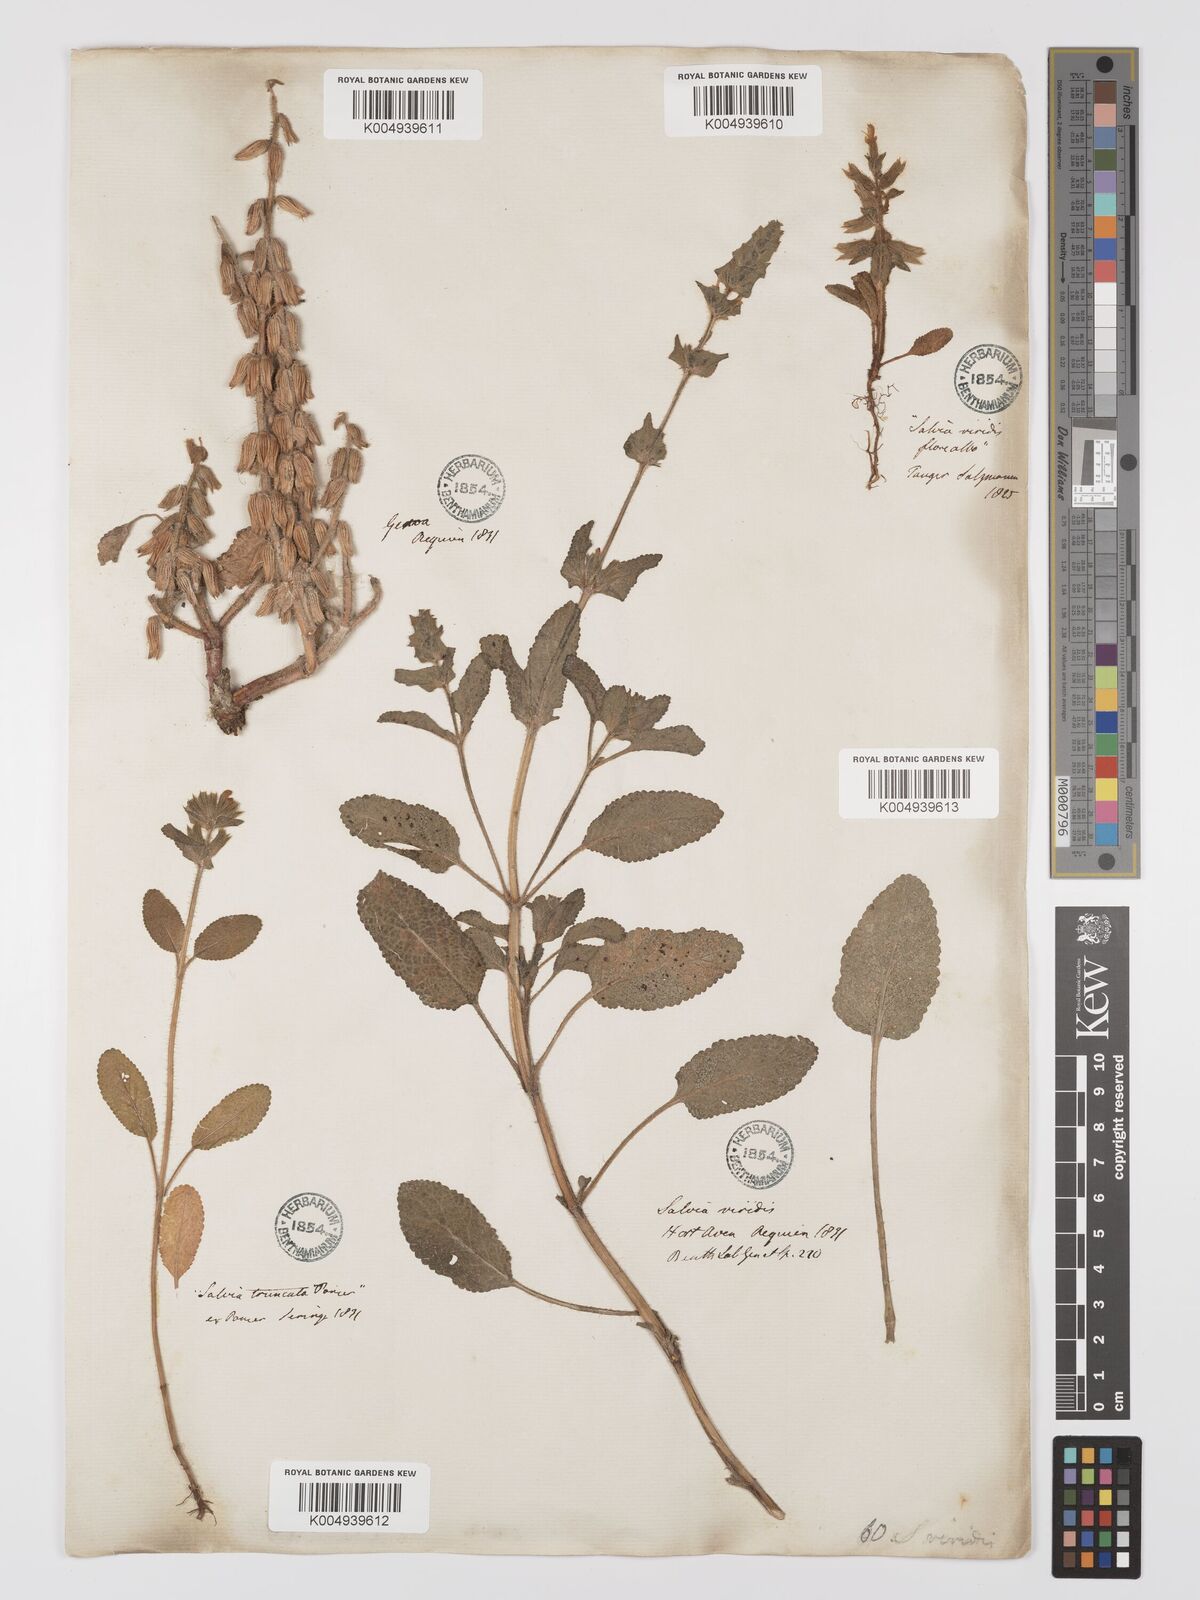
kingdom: Plantae
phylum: Tracheophyta
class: Magnoliopsida
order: Lamiales
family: Lamiaceae
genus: Salvia
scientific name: Salvia viridis
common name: Annual clary
